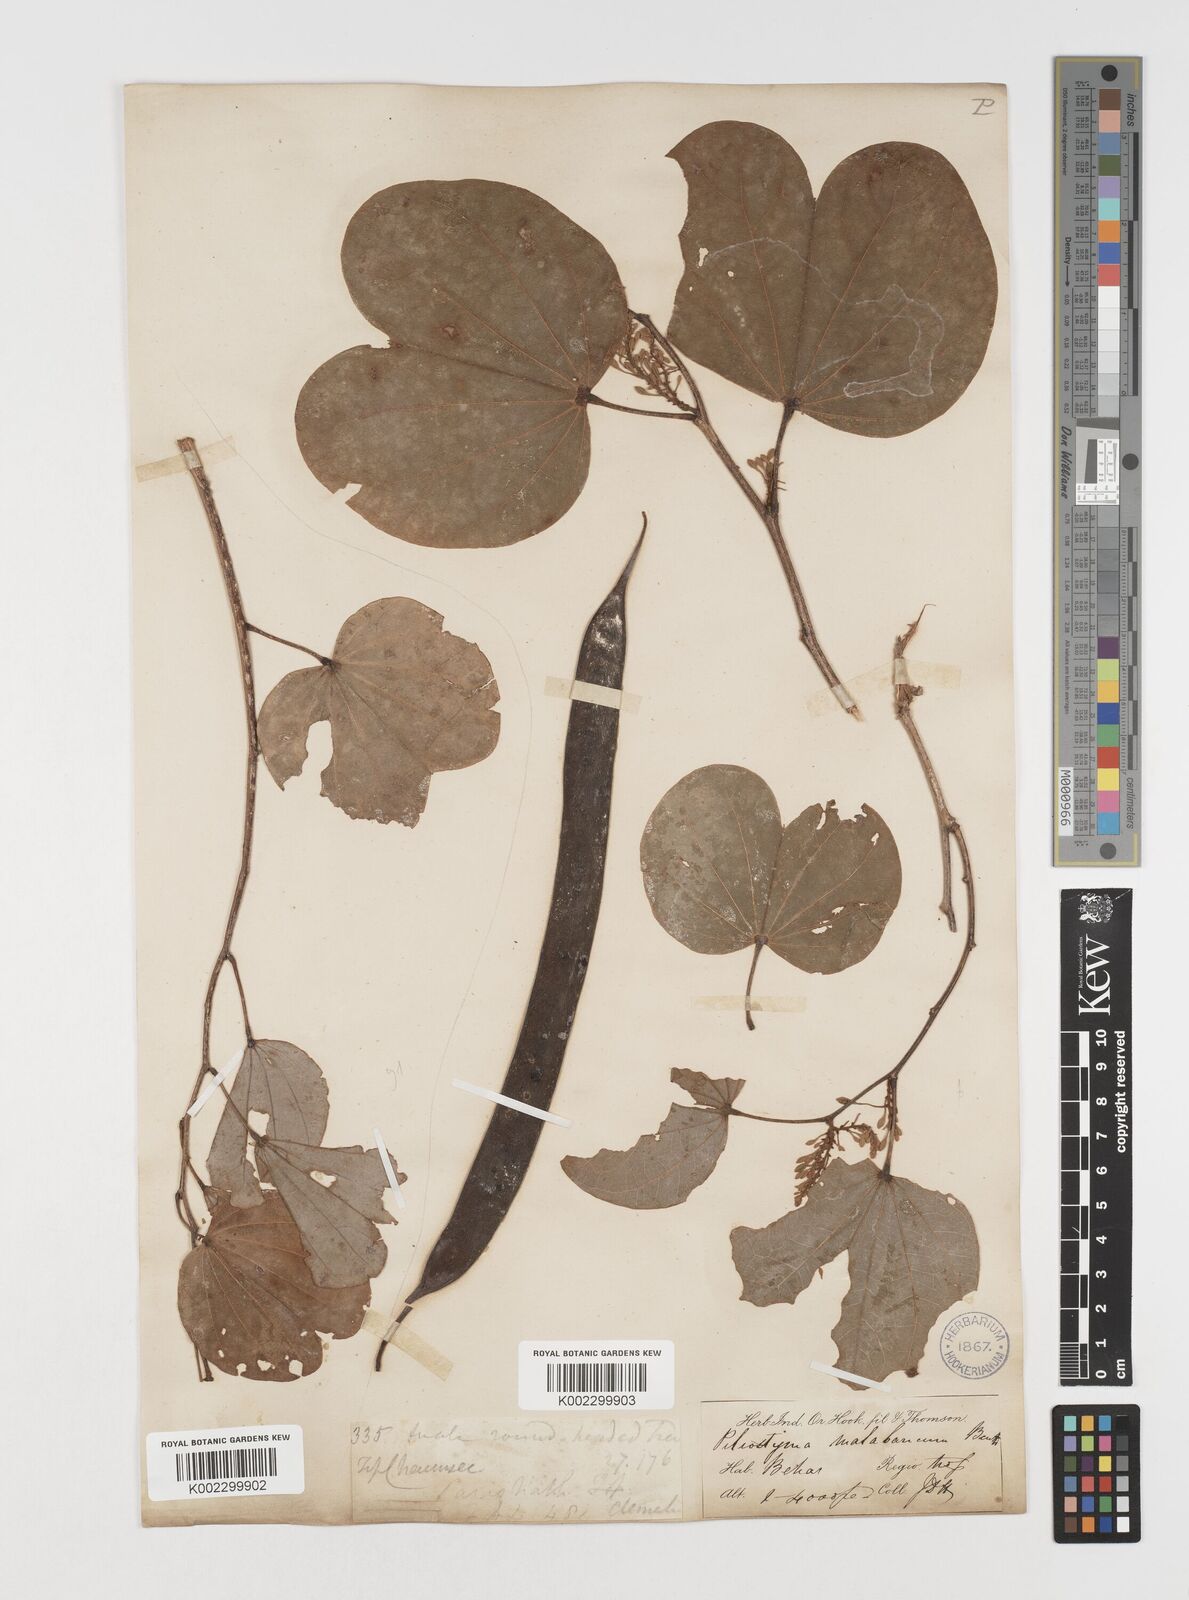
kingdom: Plantae
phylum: Tracheophyta
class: Magnoliopsida
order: Fabales
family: Fabaceae
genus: Piliostigma
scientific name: Piliostigma malabaricum
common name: Malabar bauhinia
